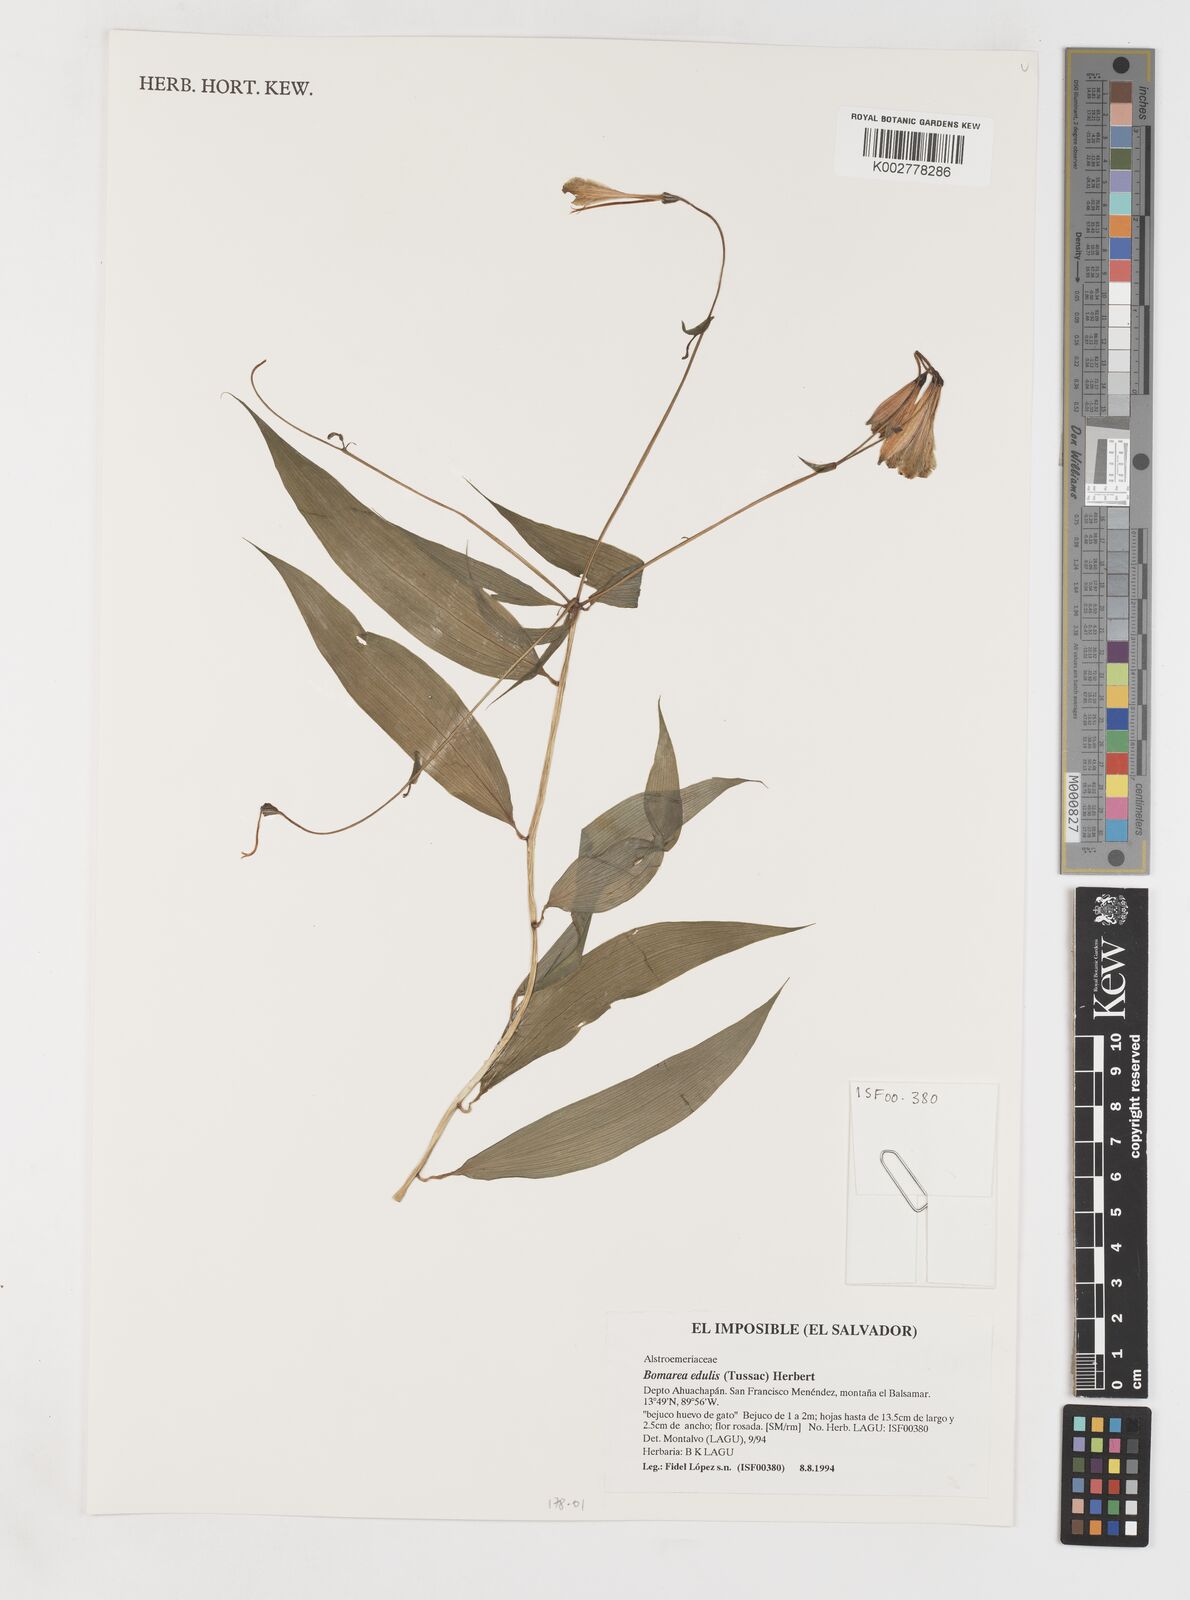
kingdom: Plantae
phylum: Tracheophyta
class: Liliopsida
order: Liliales
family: Alstroemeriaceae
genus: Bomarea
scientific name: Bomarea edulis
